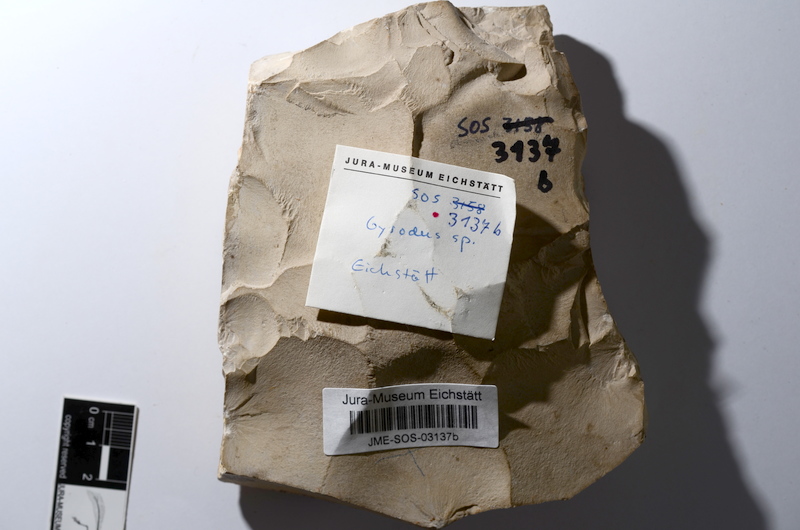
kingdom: Animalia
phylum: Chordata
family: Gyrodontidae
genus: Gyrodus
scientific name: Gyrodus hexagonus
